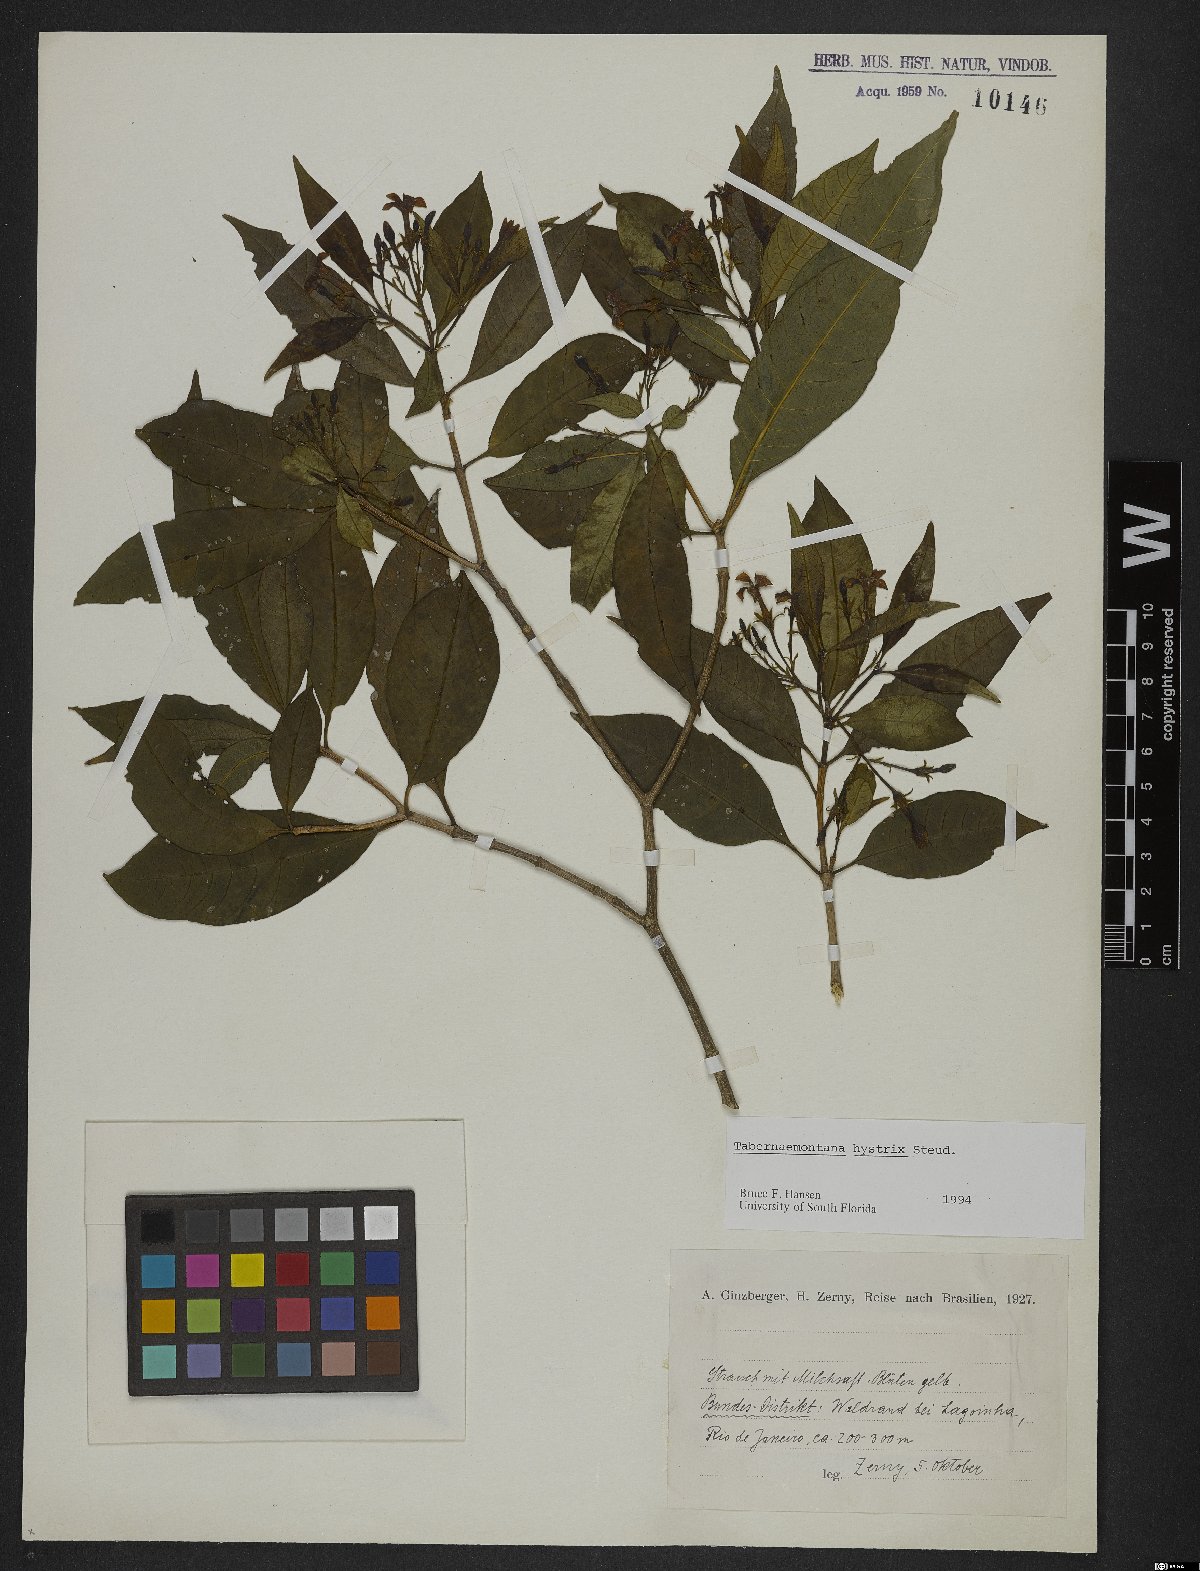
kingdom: Plantae
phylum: Tracheophyta
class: Magnoliopsida
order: Gentianales
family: Apocynaceae
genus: Tabernaemontana
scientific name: Tabernaemontana hystrix
